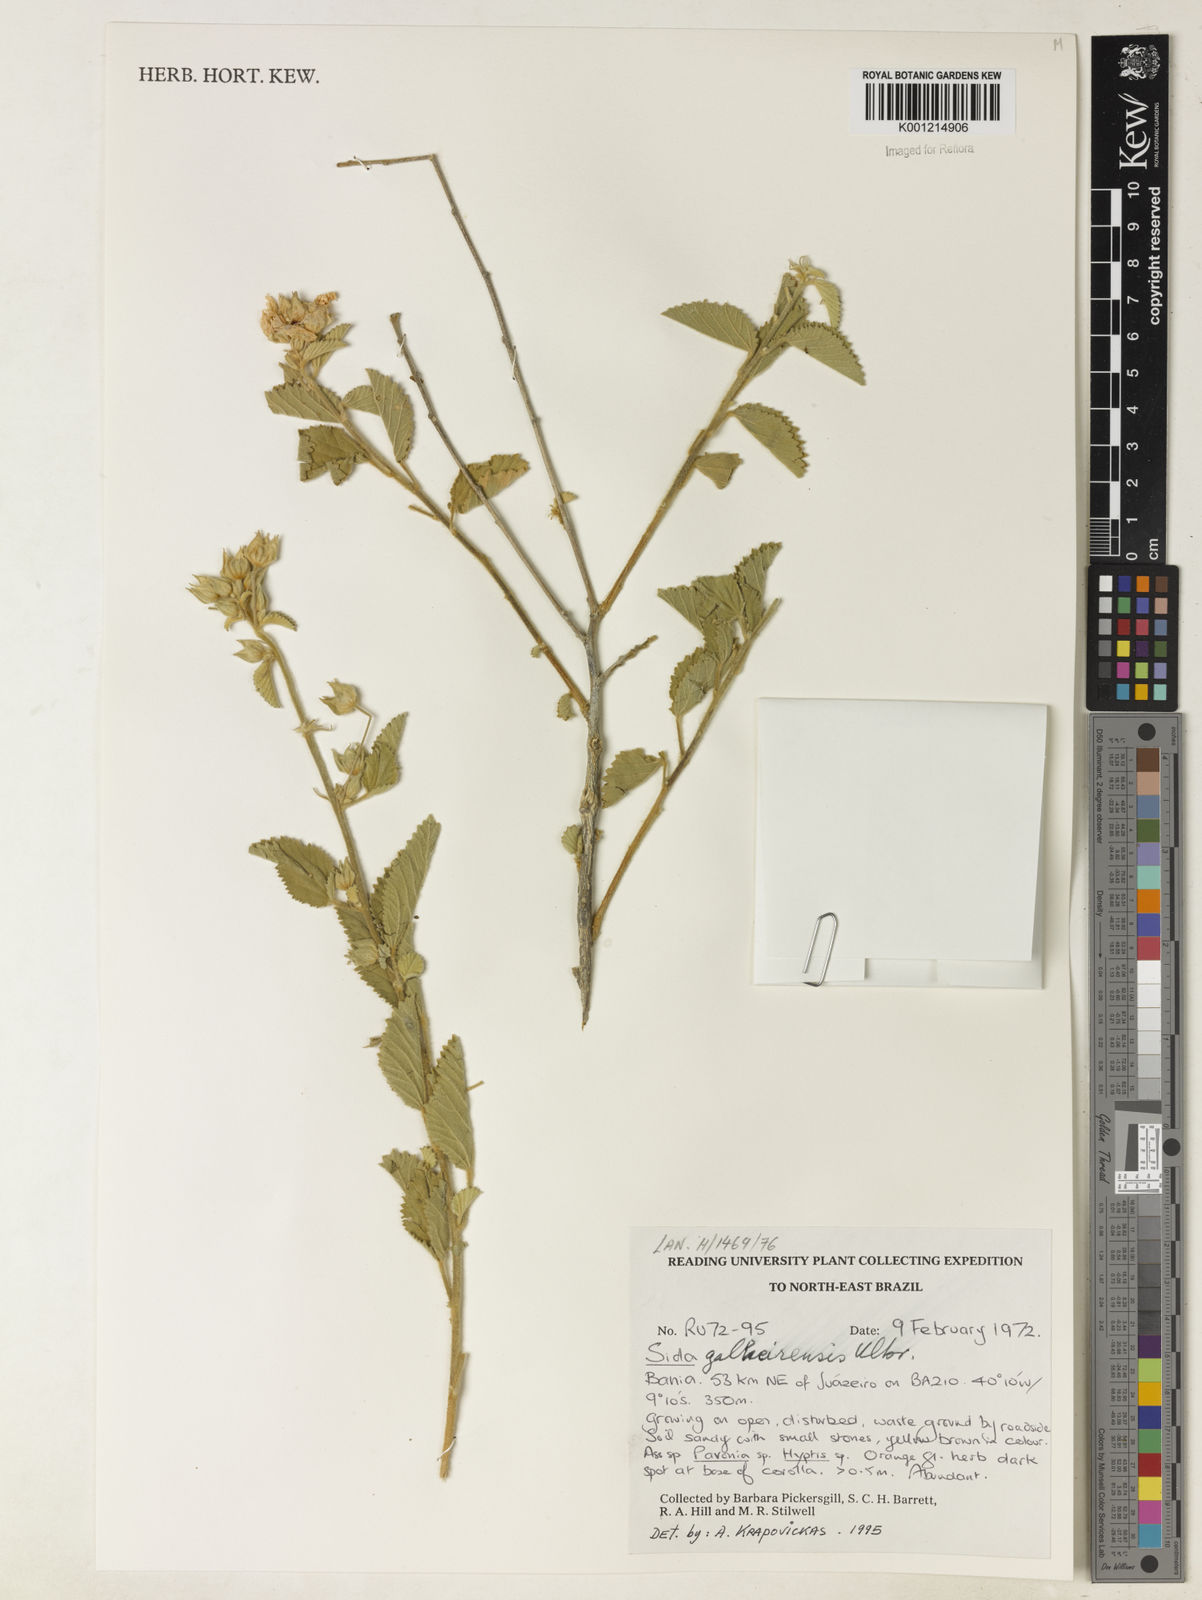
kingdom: Plantae
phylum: Tracheophyta
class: Magnoliopsida
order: Malvales
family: Malvaceae
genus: Sida
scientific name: Sida galheirensis
